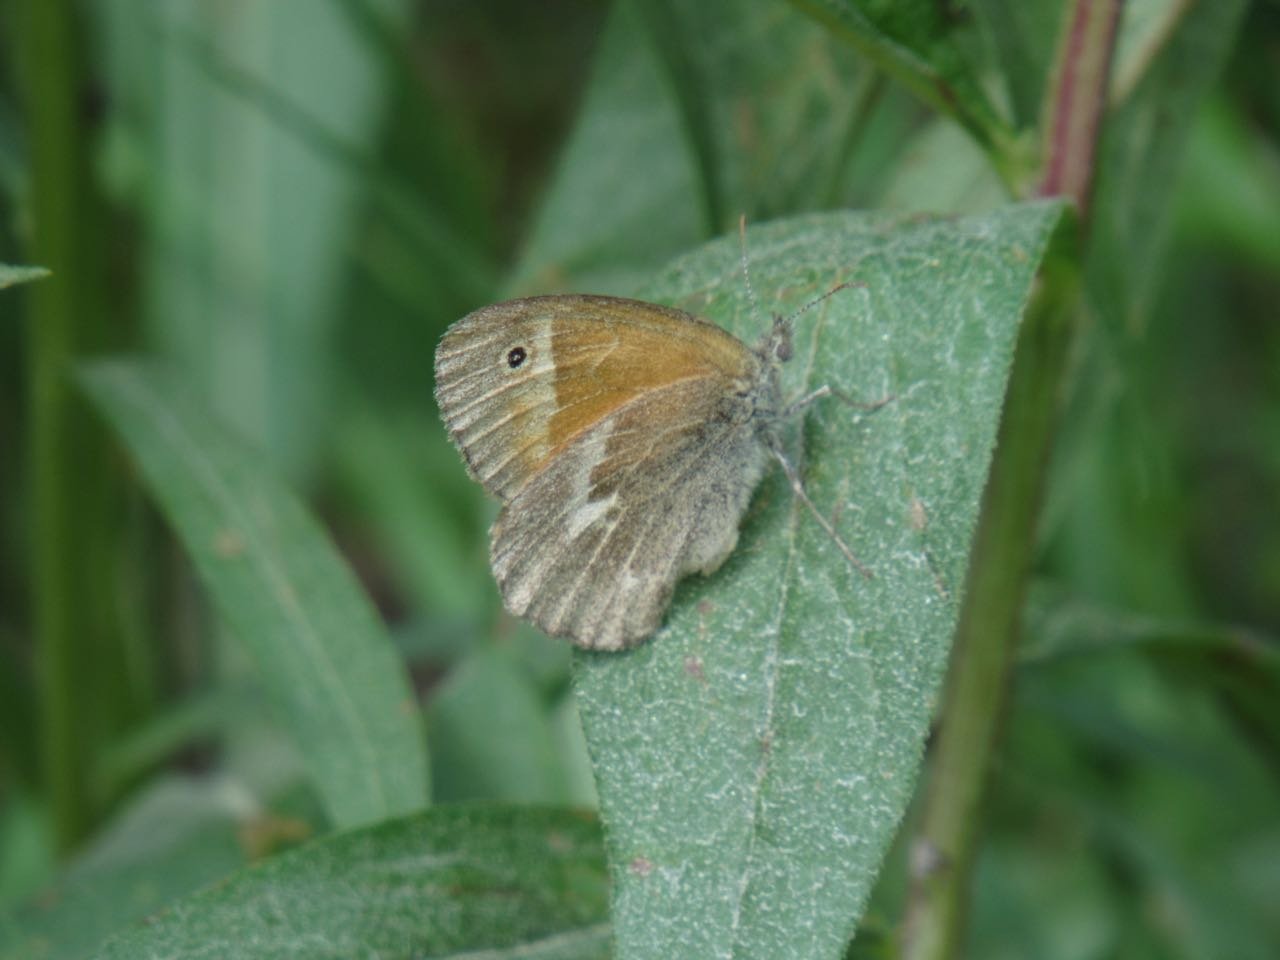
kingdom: Animalia
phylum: Arthropoda
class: Insecta
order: Lepidoptera
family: Nymphalidae
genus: Coenonympha
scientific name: Coenonympha tullia
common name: Large Heath
